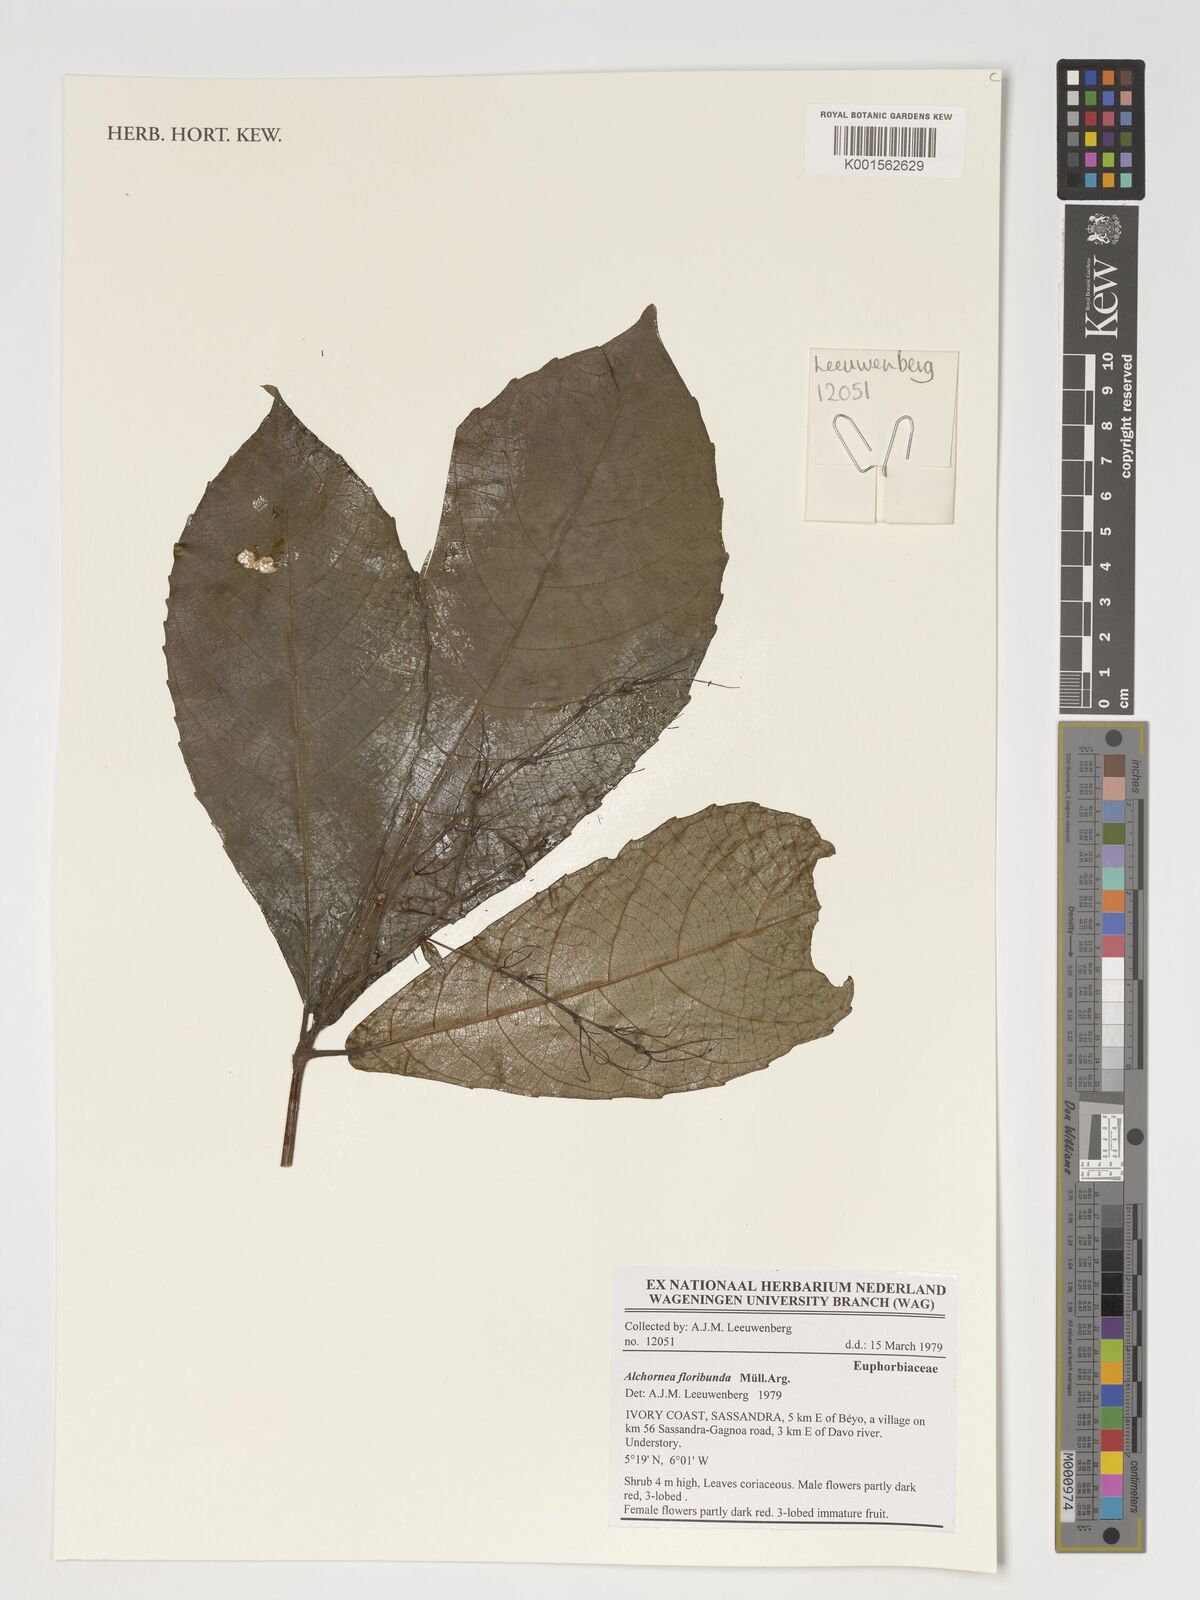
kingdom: Plantae
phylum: Tracheophyta
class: Magnoliopsida
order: Malpighiales
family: Euphorbiaceae
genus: Alchornea
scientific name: Alchornea floribunda
